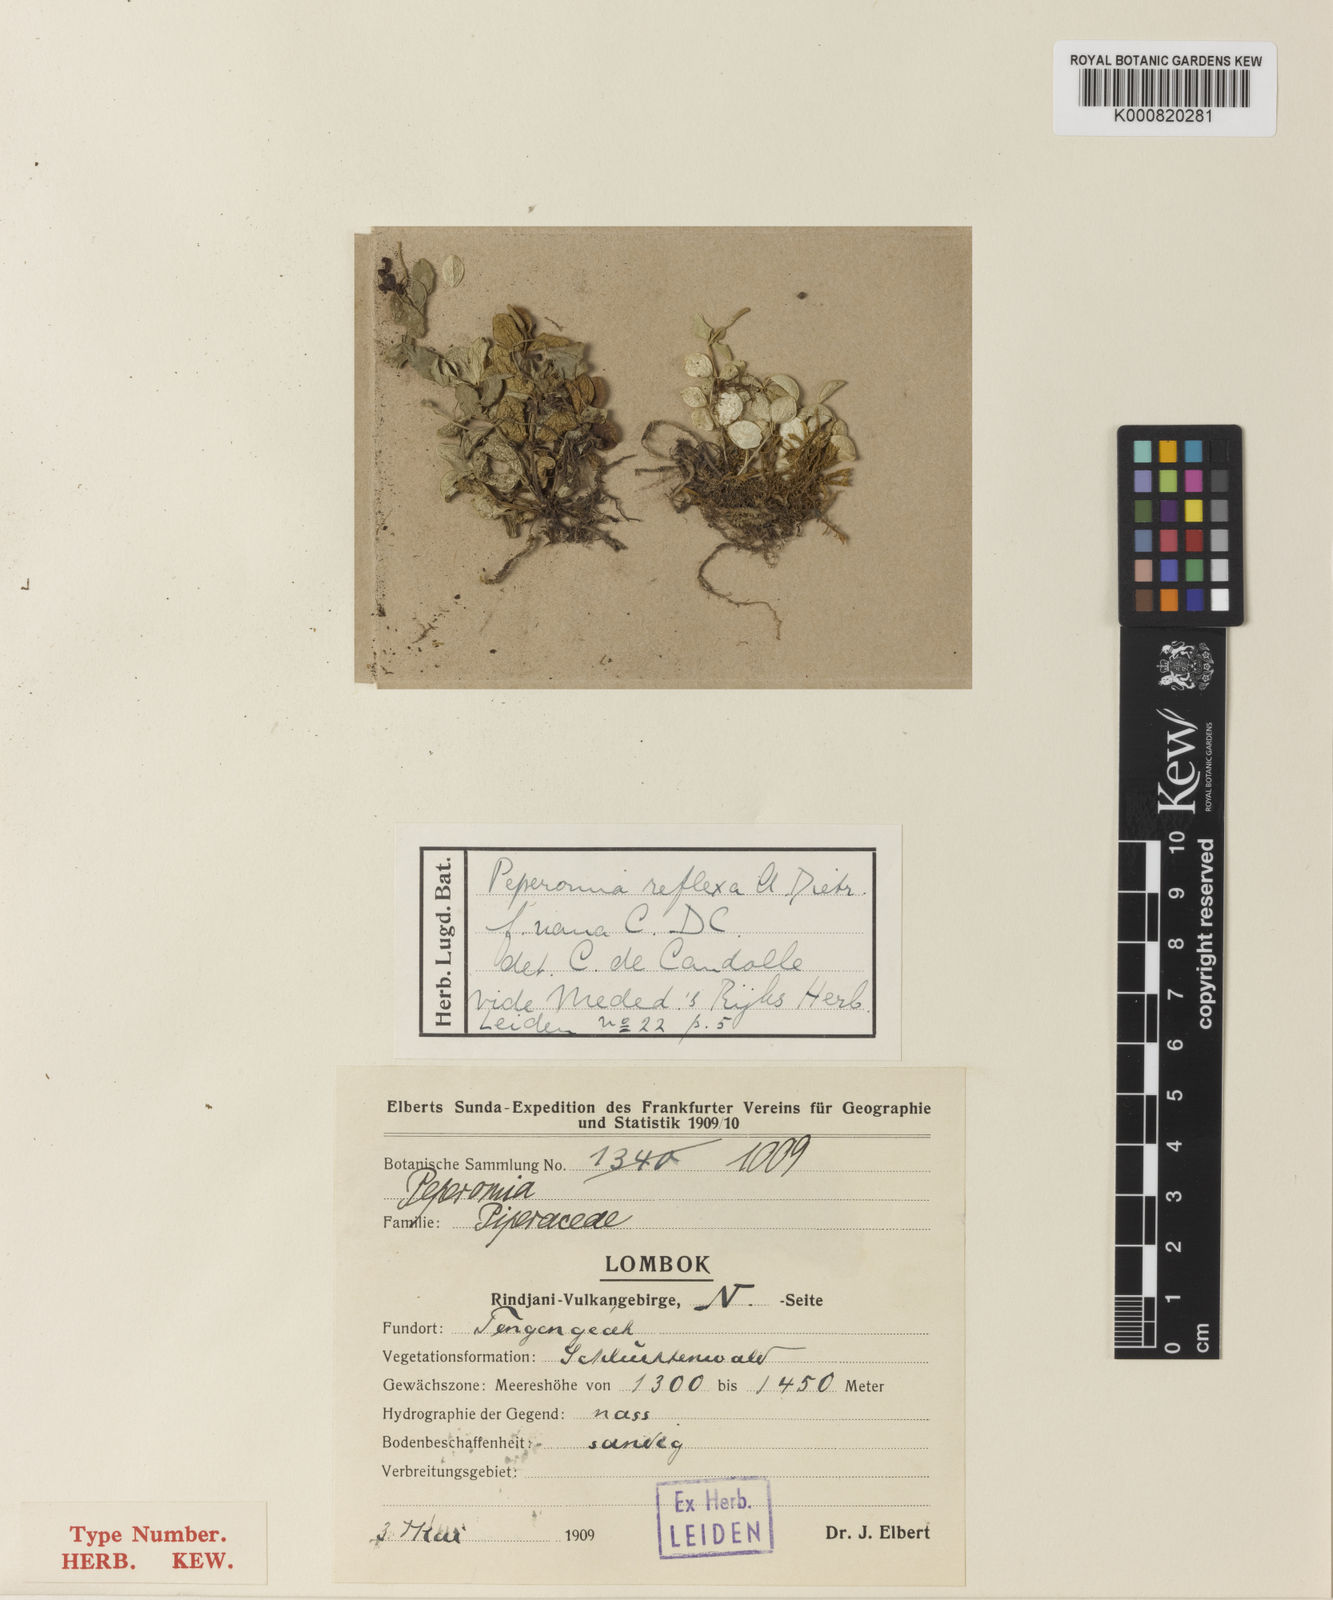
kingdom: Plantae
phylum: Tracheophyta
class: Magnoliopsida
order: Piperales
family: Piperaceae
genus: Peperomia
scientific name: Peperomia
